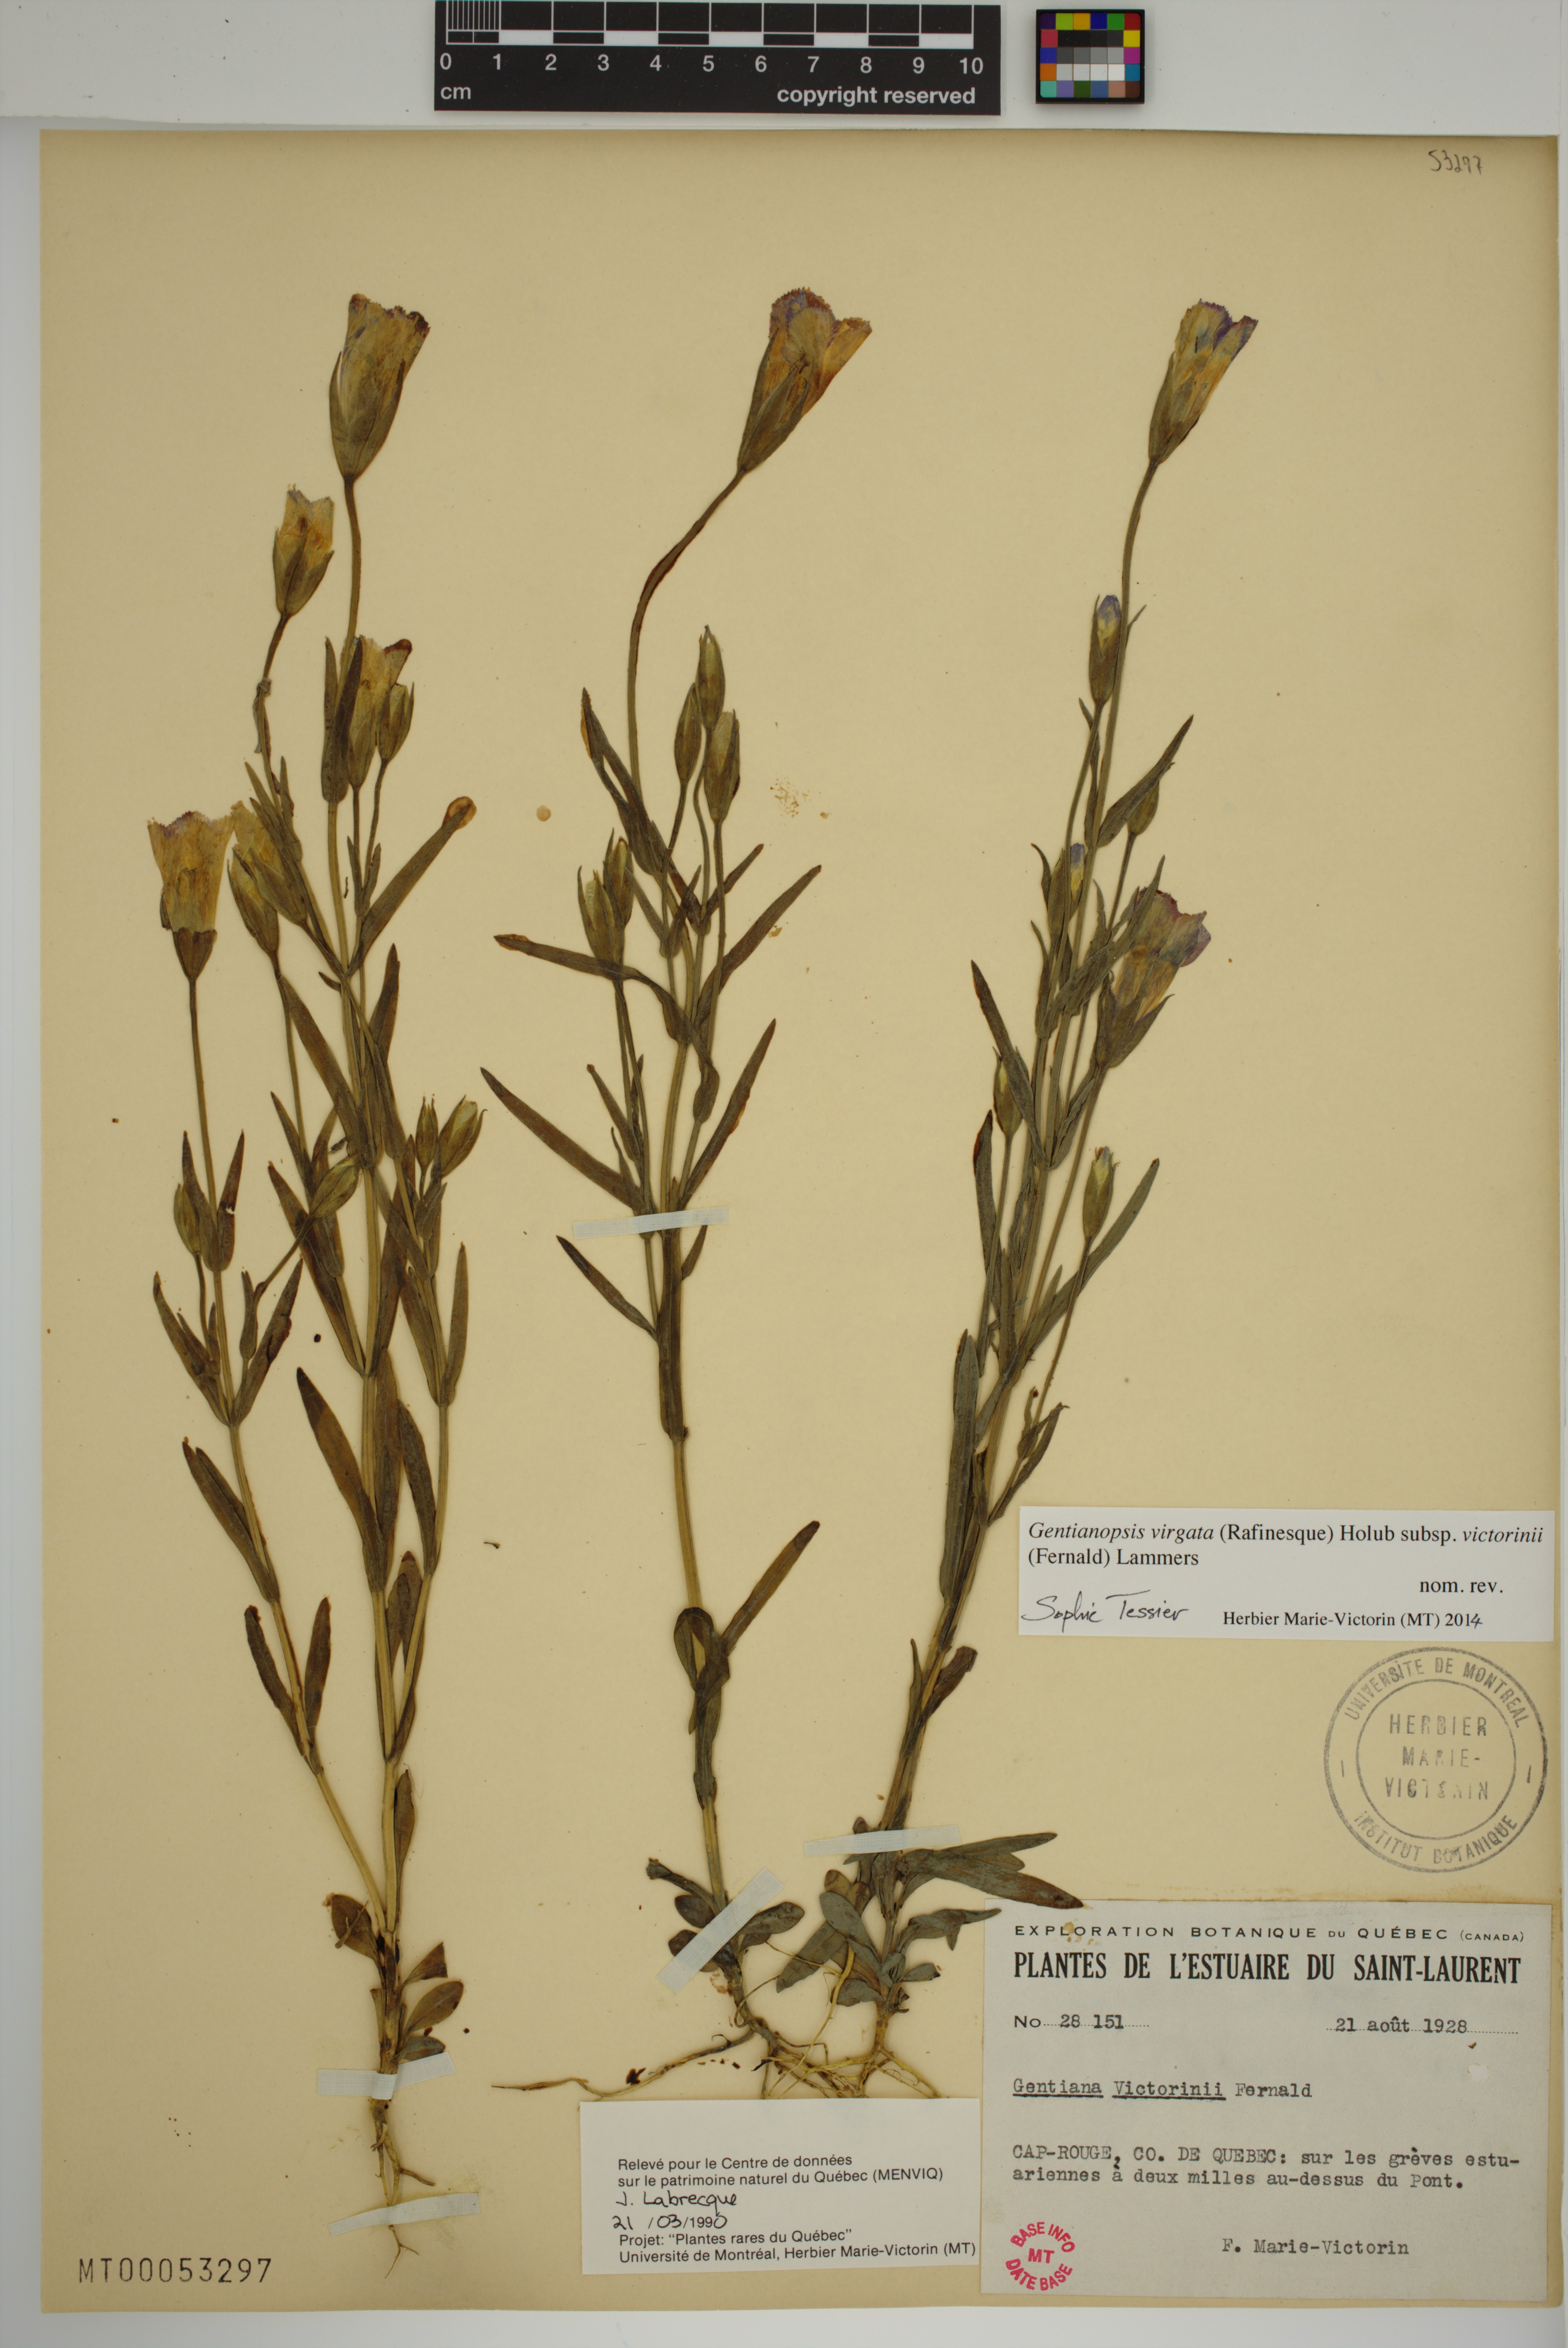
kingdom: Plantae
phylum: Tracheophyta
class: Magnoliopsida
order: Gentianales
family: Gentianaceae
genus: Gentianopsis
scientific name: Gentianopsis victorinii
